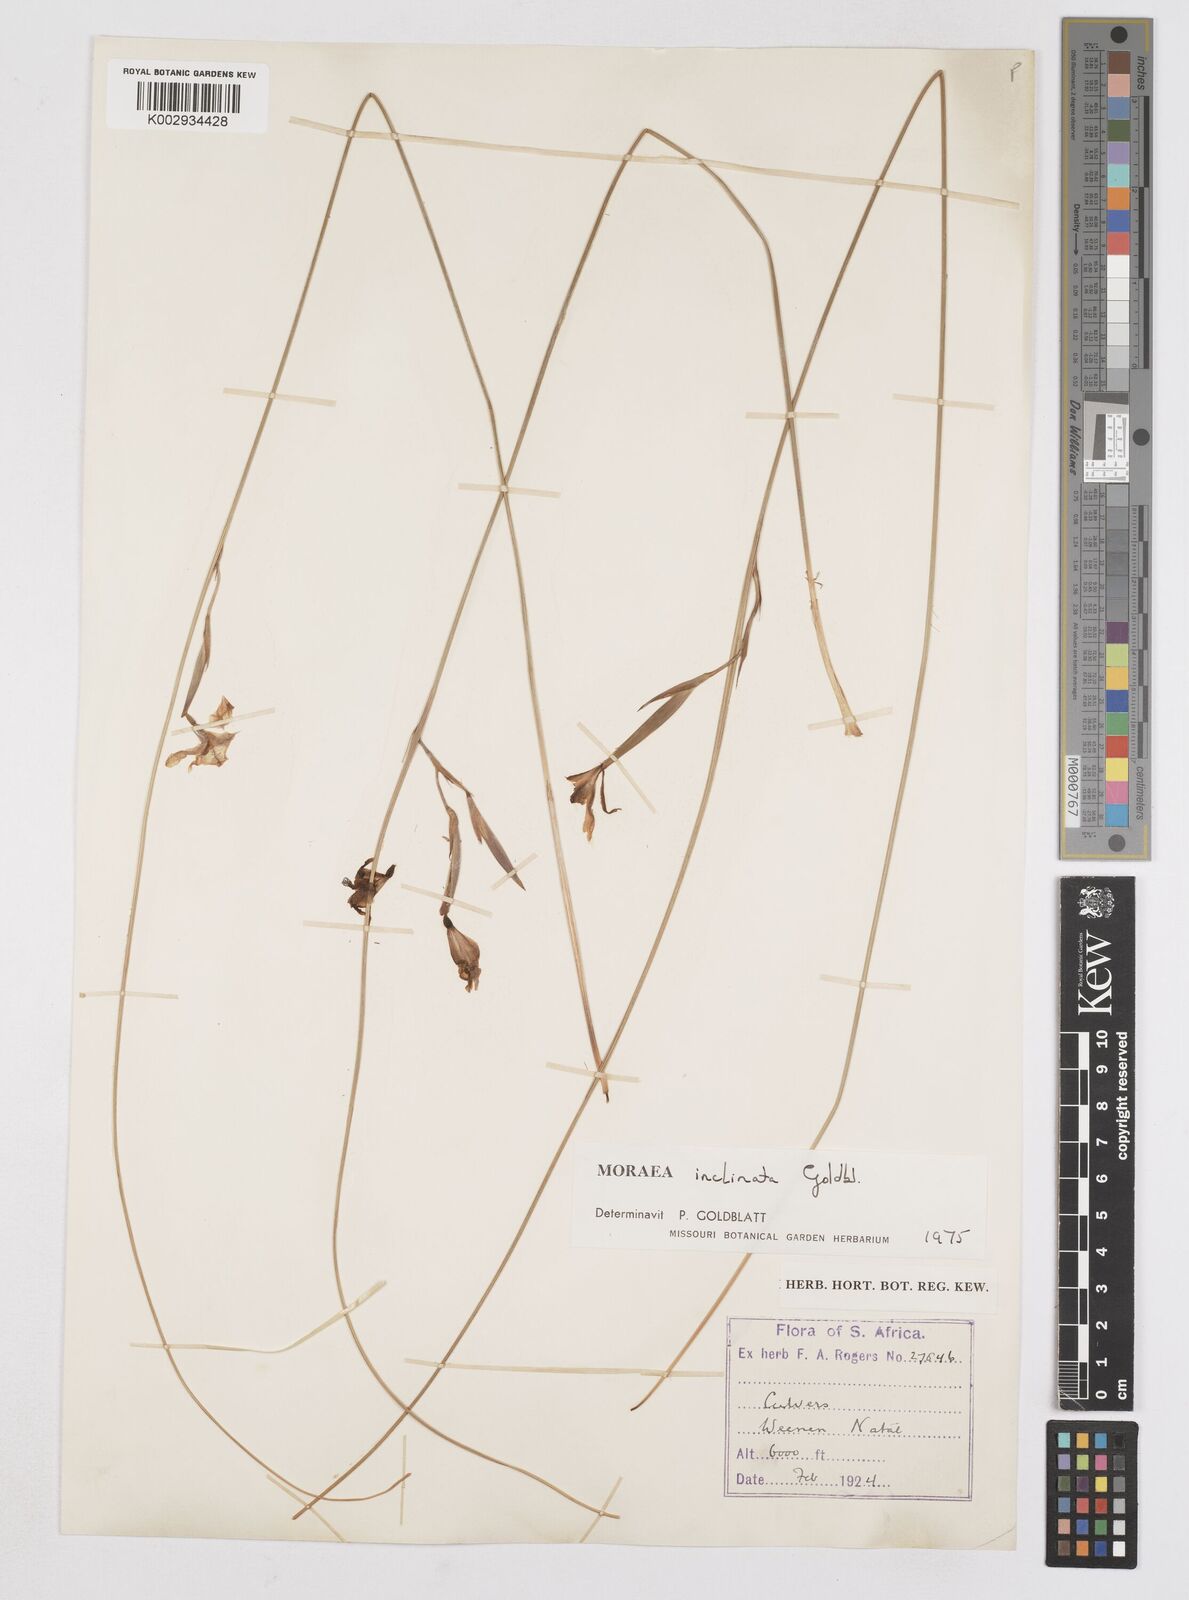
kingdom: Plantae
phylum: Tracheophyta
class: Liliopsida
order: Asparagales
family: Iridaceae
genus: Moraea
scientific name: Moraea inclinata
